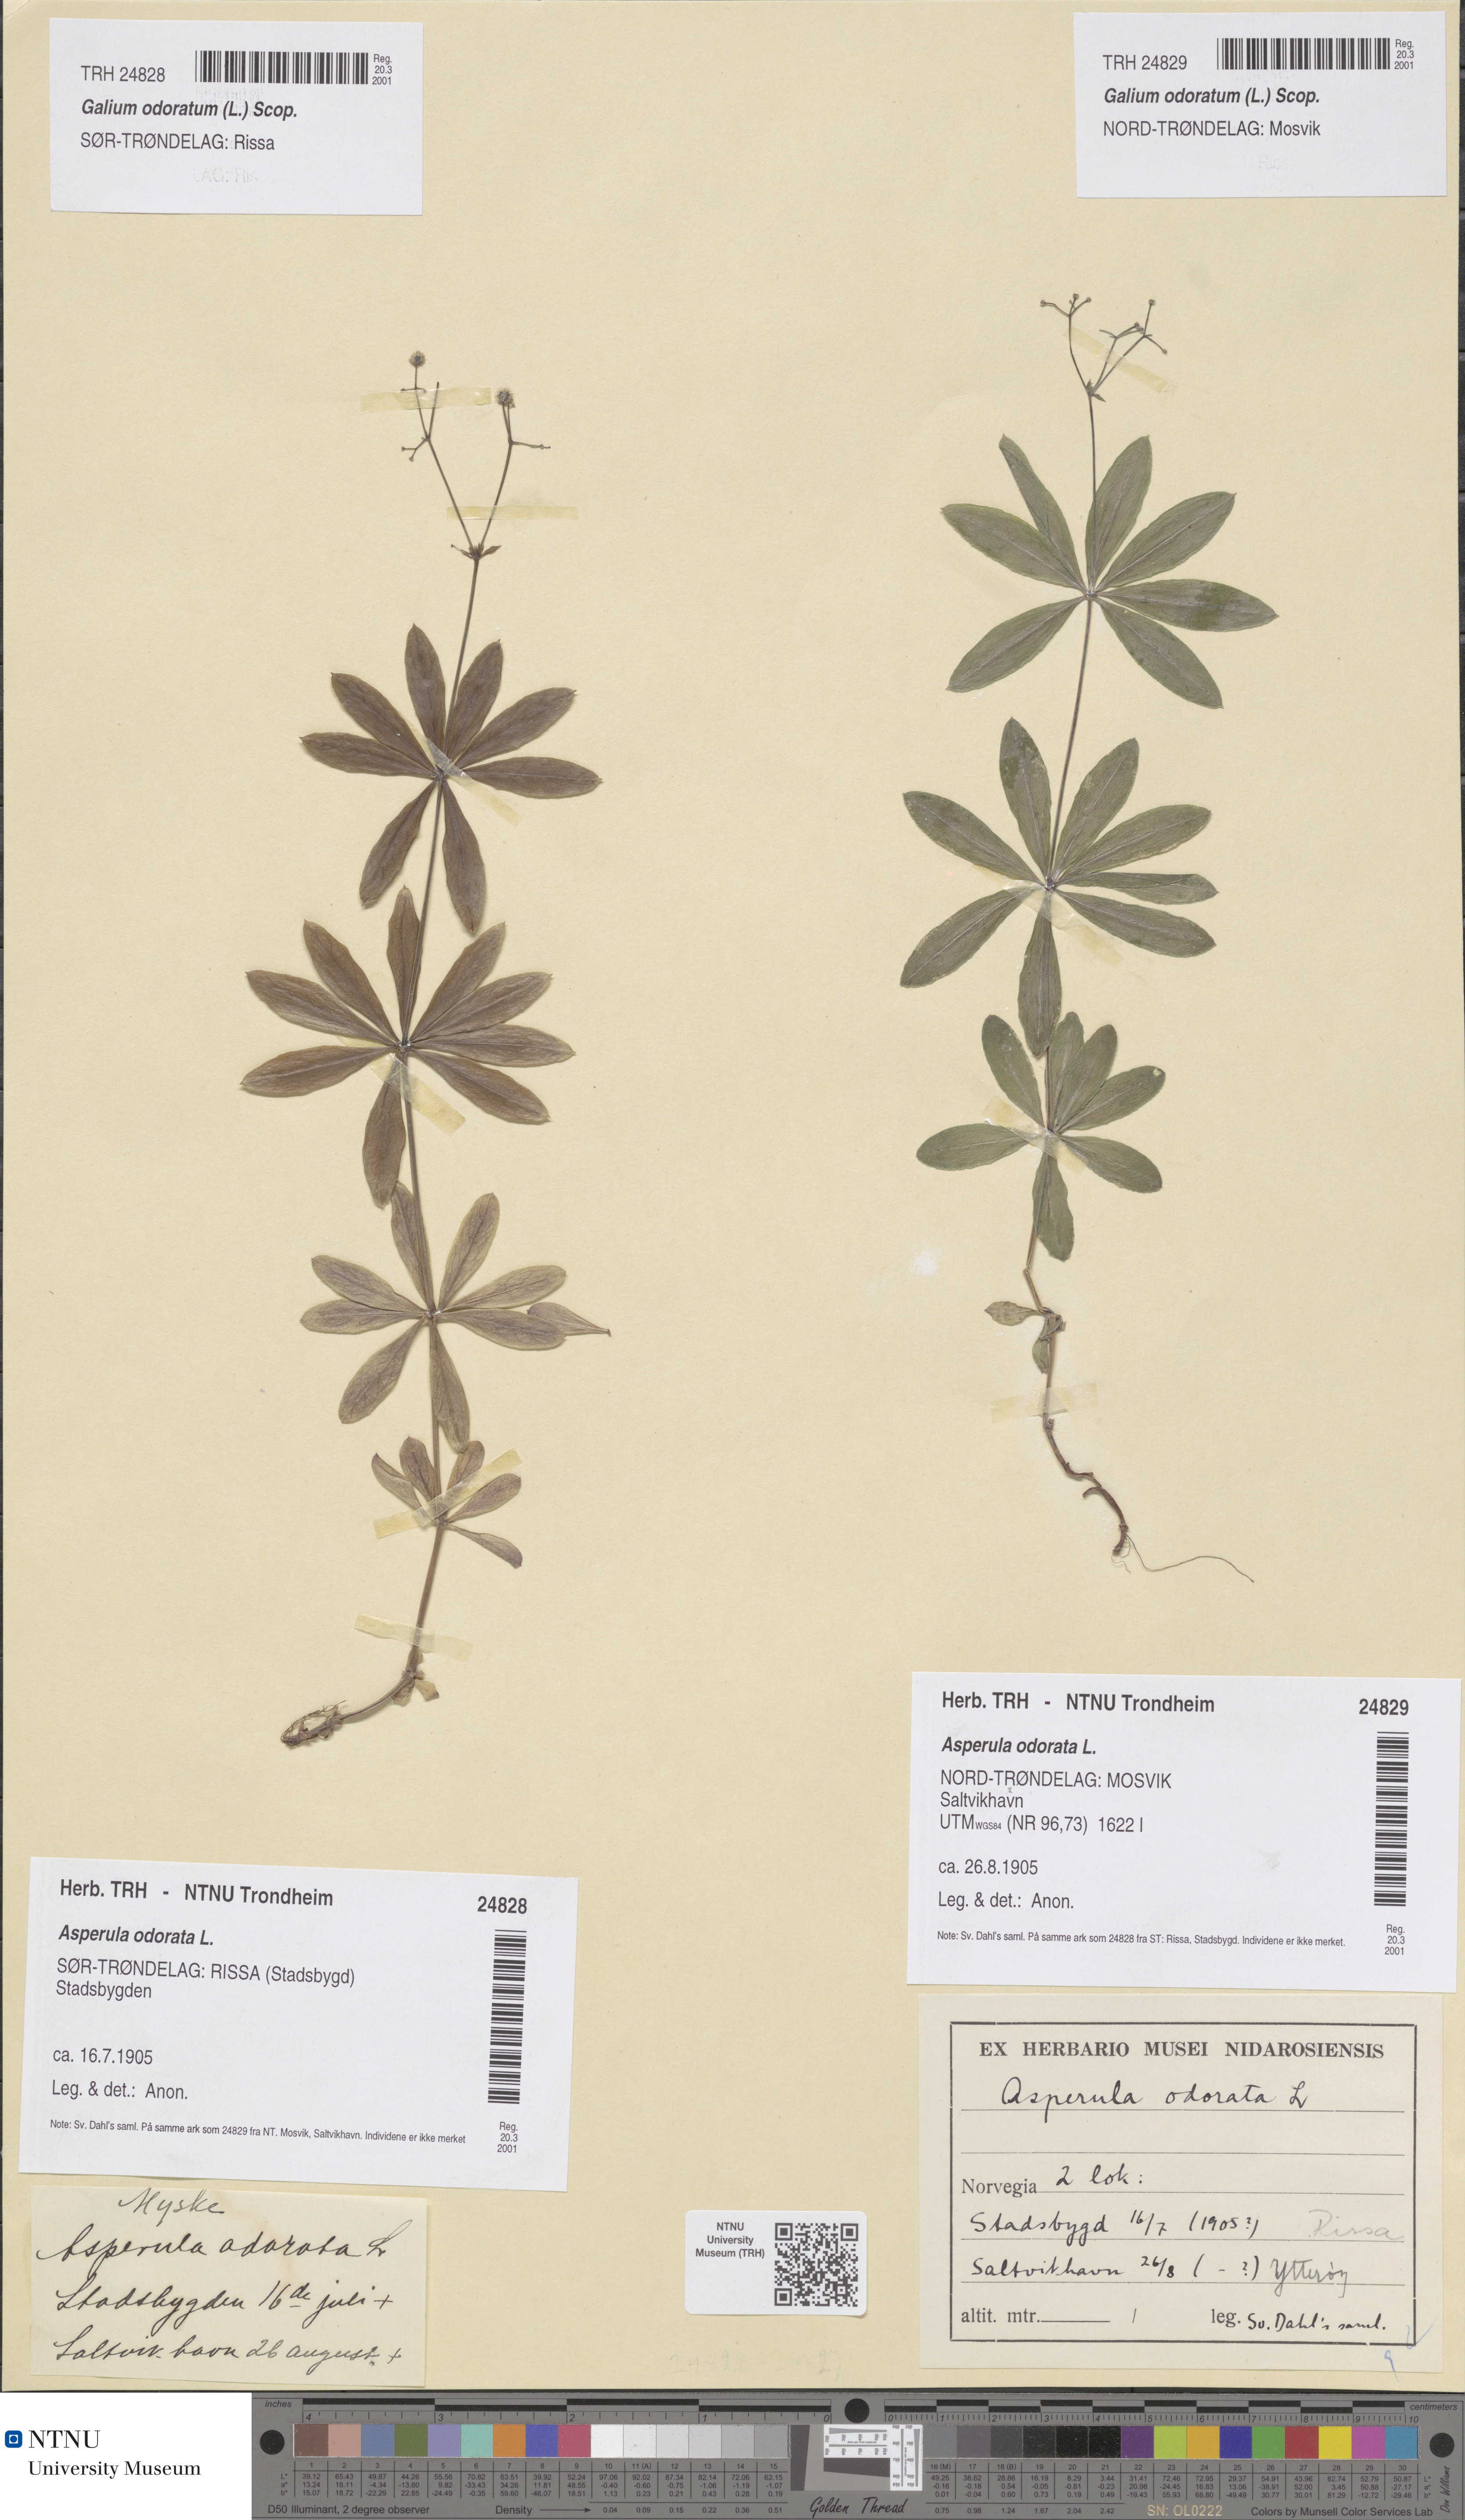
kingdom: Plantae
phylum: Tracheophyta
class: Magnoliopsida
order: Gentianales
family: Rubiaceae
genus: Galium
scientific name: Galium odoratum
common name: Sweet woodruff
